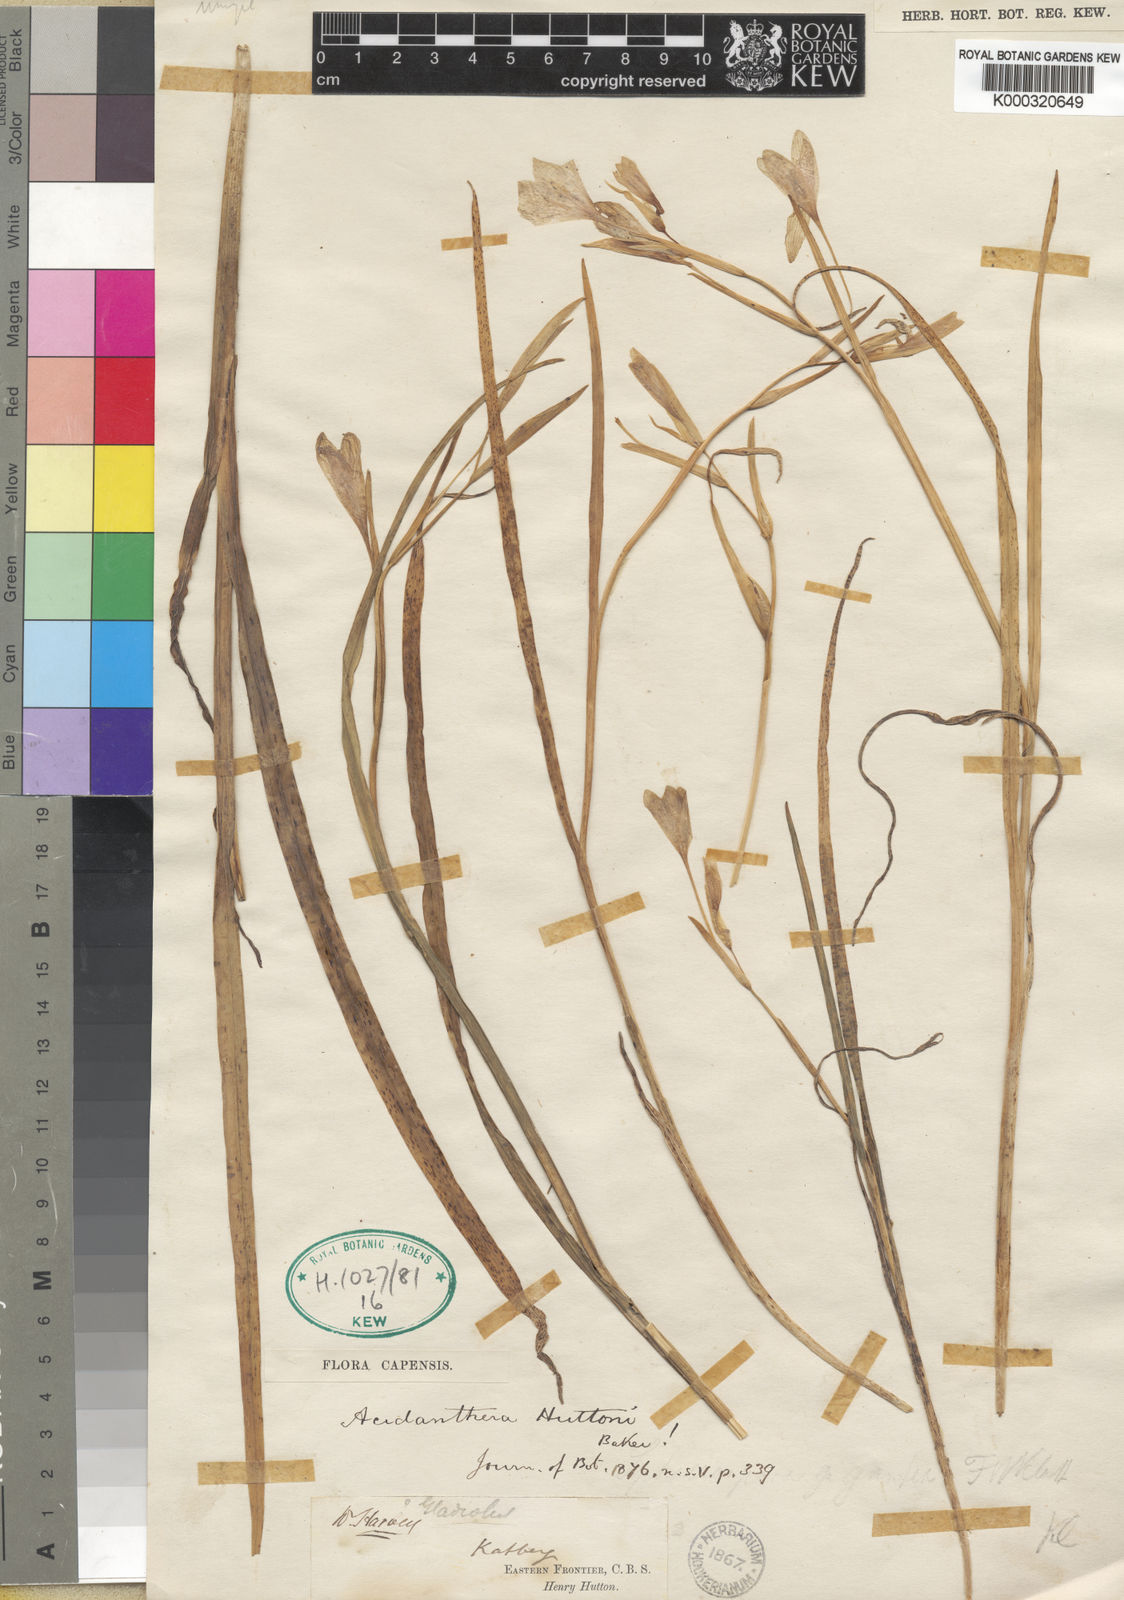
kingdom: Plantae
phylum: Tracheophyta
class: Liliopsida
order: Asparagales
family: Iridaceae
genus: Hesperantha
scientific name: Hesperantha huttonii
